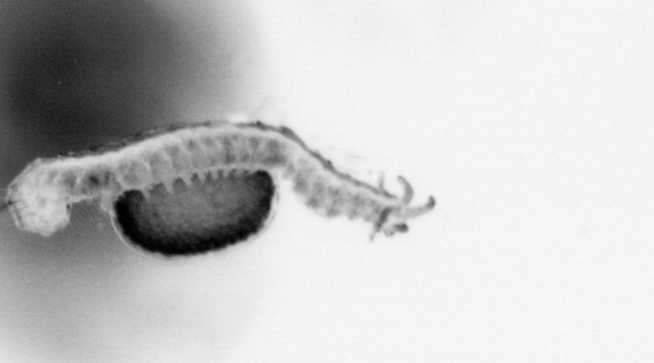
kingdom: Animalia
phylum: Annelida
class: Polychaeta
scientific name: Polychaeta
